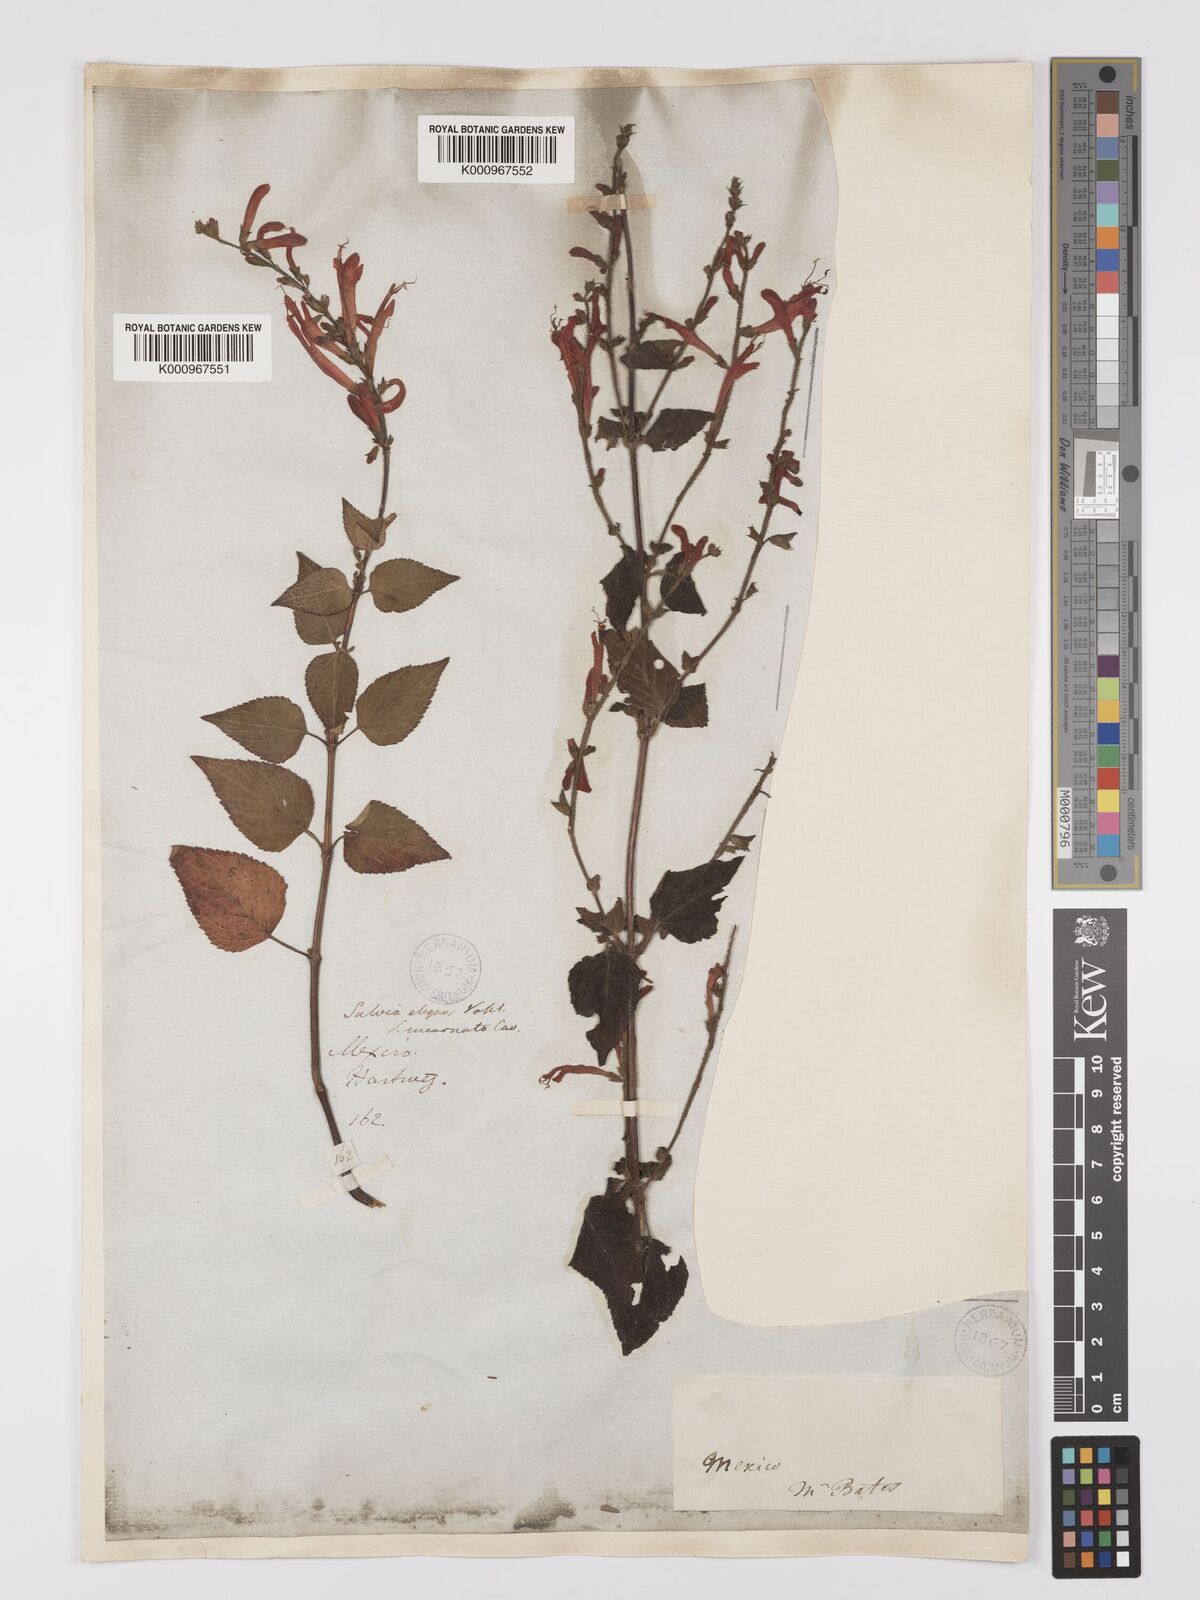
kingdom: Plantae
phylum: Tracheophyta
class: Magnoliopsida
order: Lamiales
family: Lamiaceae
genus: Salvia
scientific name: Salvia elegans
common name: Pineapple sage
